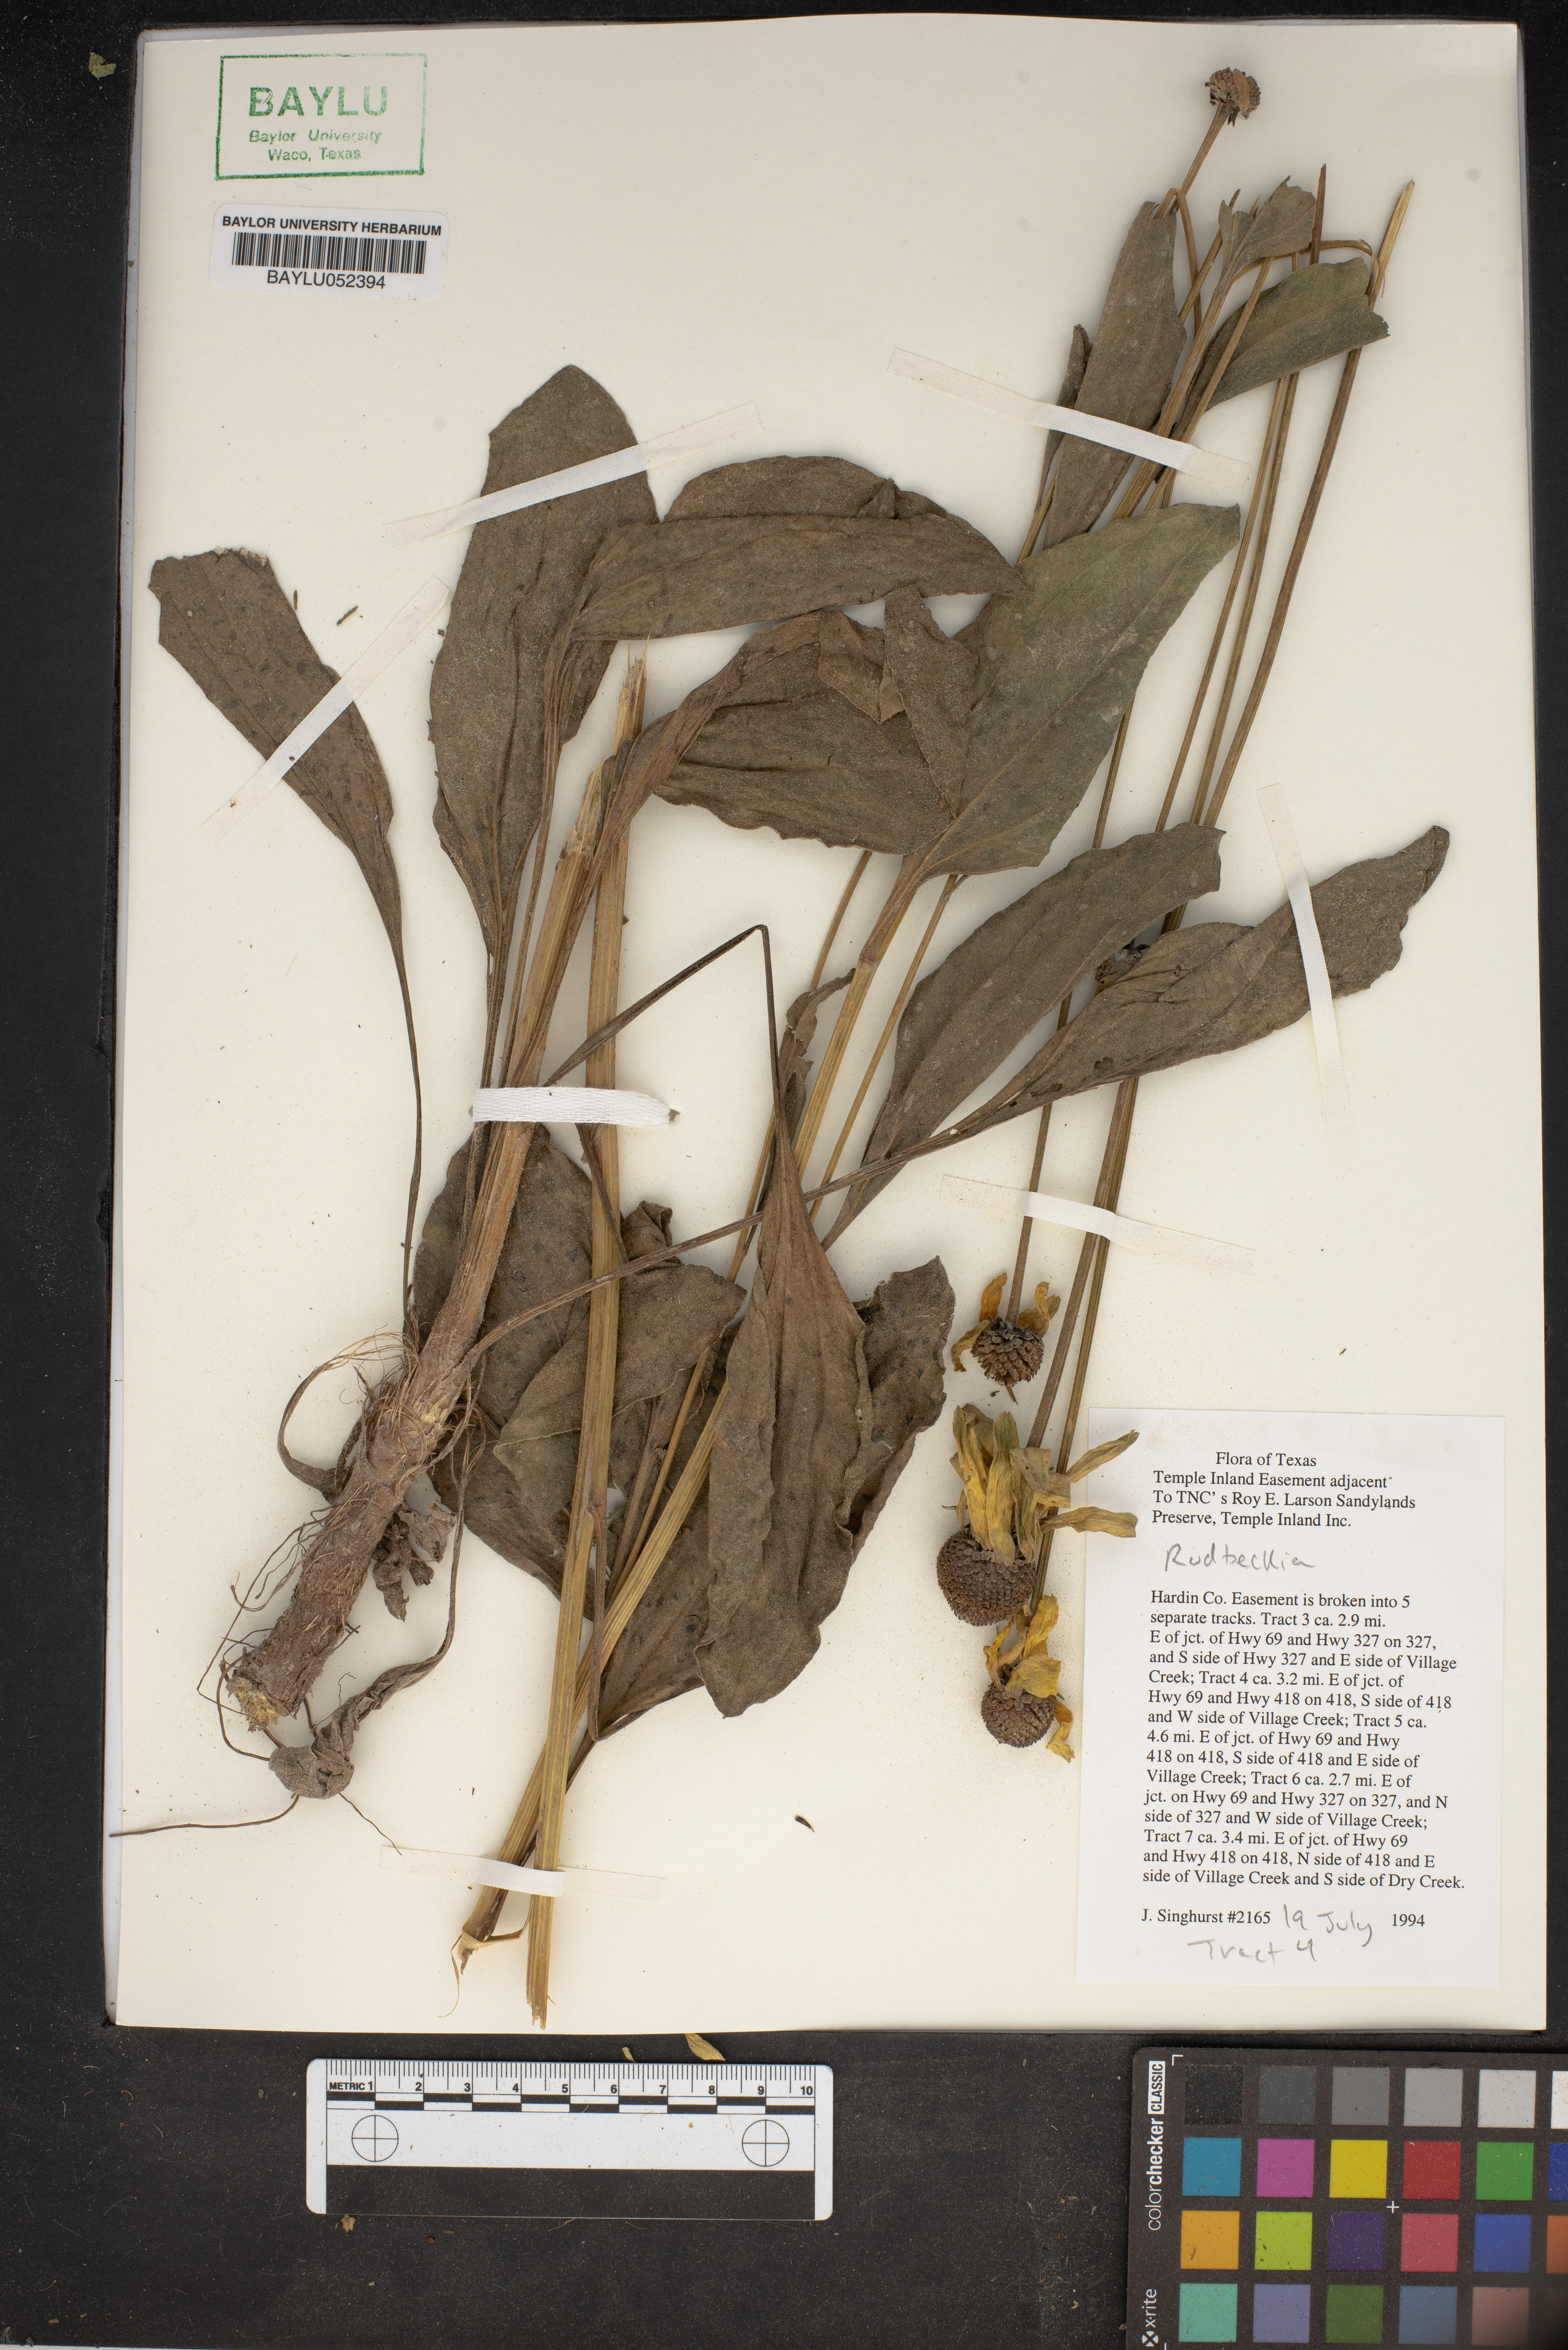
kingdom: Plantae
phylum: Tracheophyta
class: Magnoliopsida
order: Asterales
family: Asteraceae
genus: Rudbeckia
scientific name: Rudbeckia
